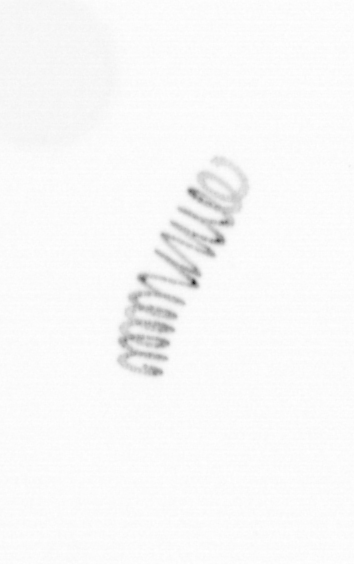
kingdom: Chromista
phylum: Ochrophyta
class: Bacillariophyceae
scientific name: Bacillariophyceae
